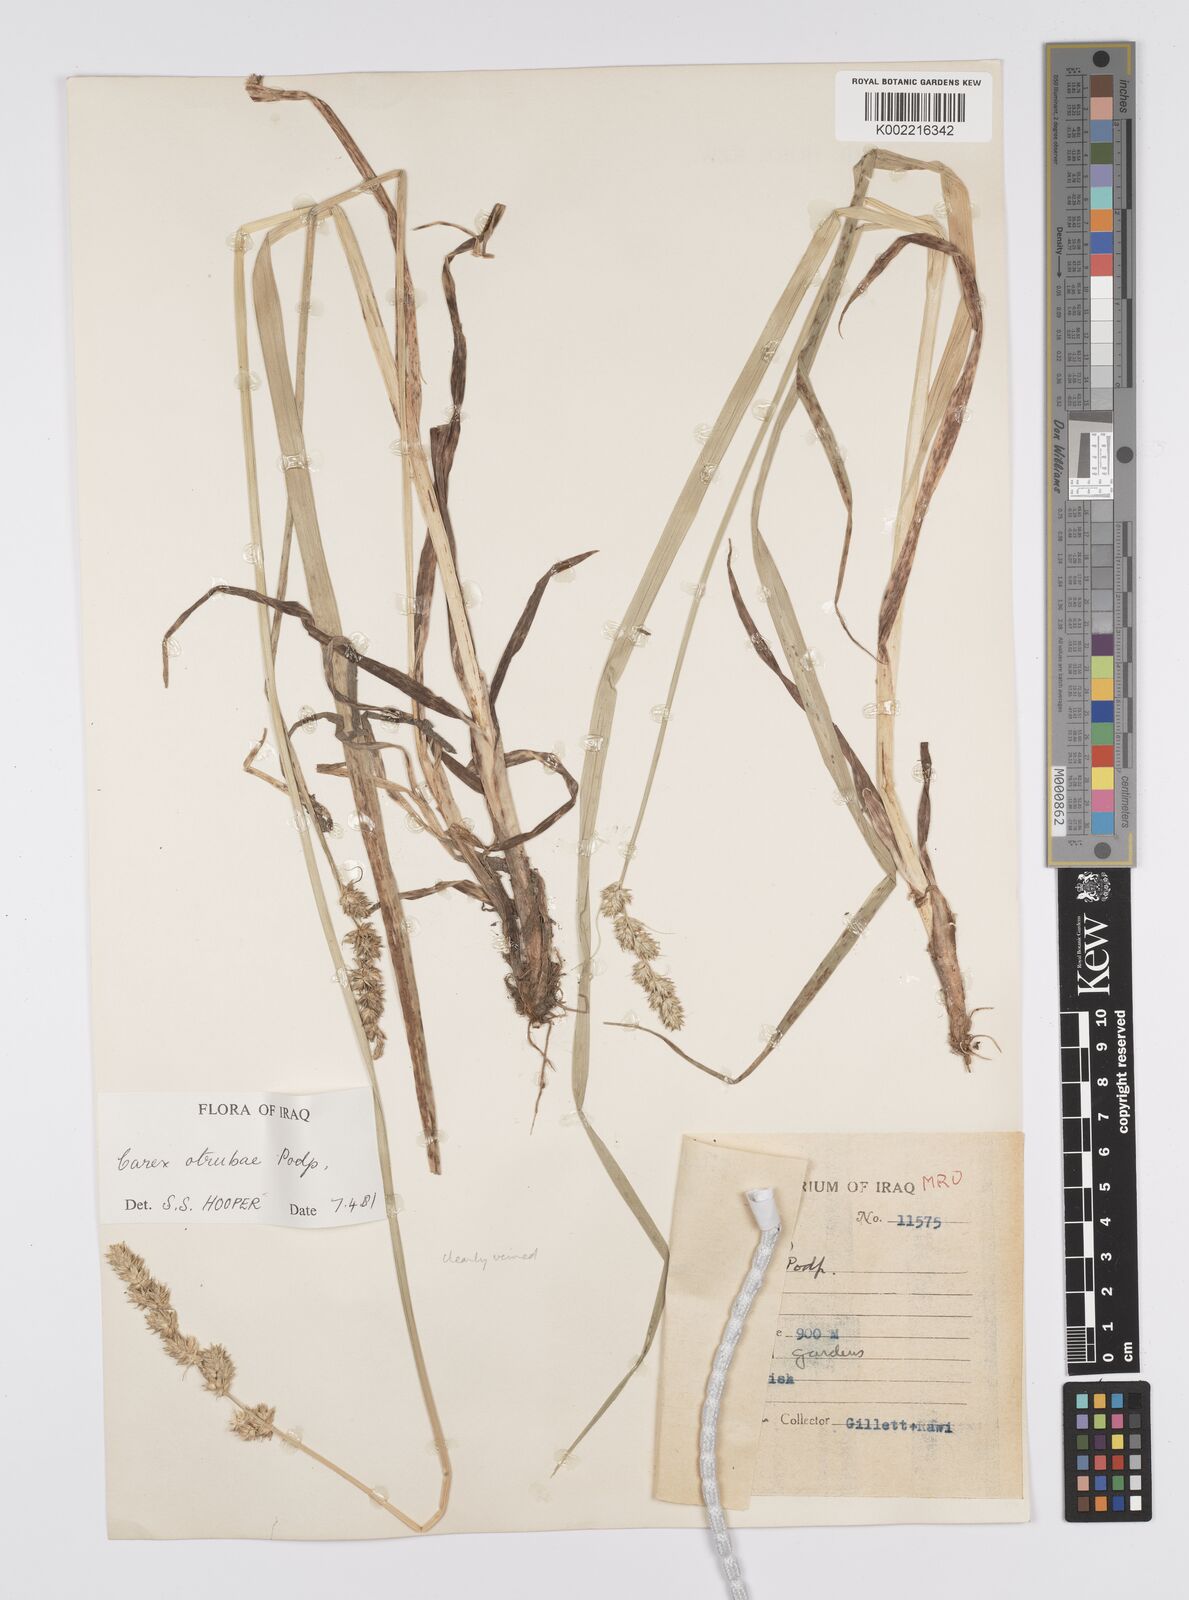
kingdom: Plantae
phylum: Tracheophyta
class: Liliopsida
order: Poales
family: Cyperaceae
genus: Carex
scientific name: Carex otrubae
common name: False fox-sedge
